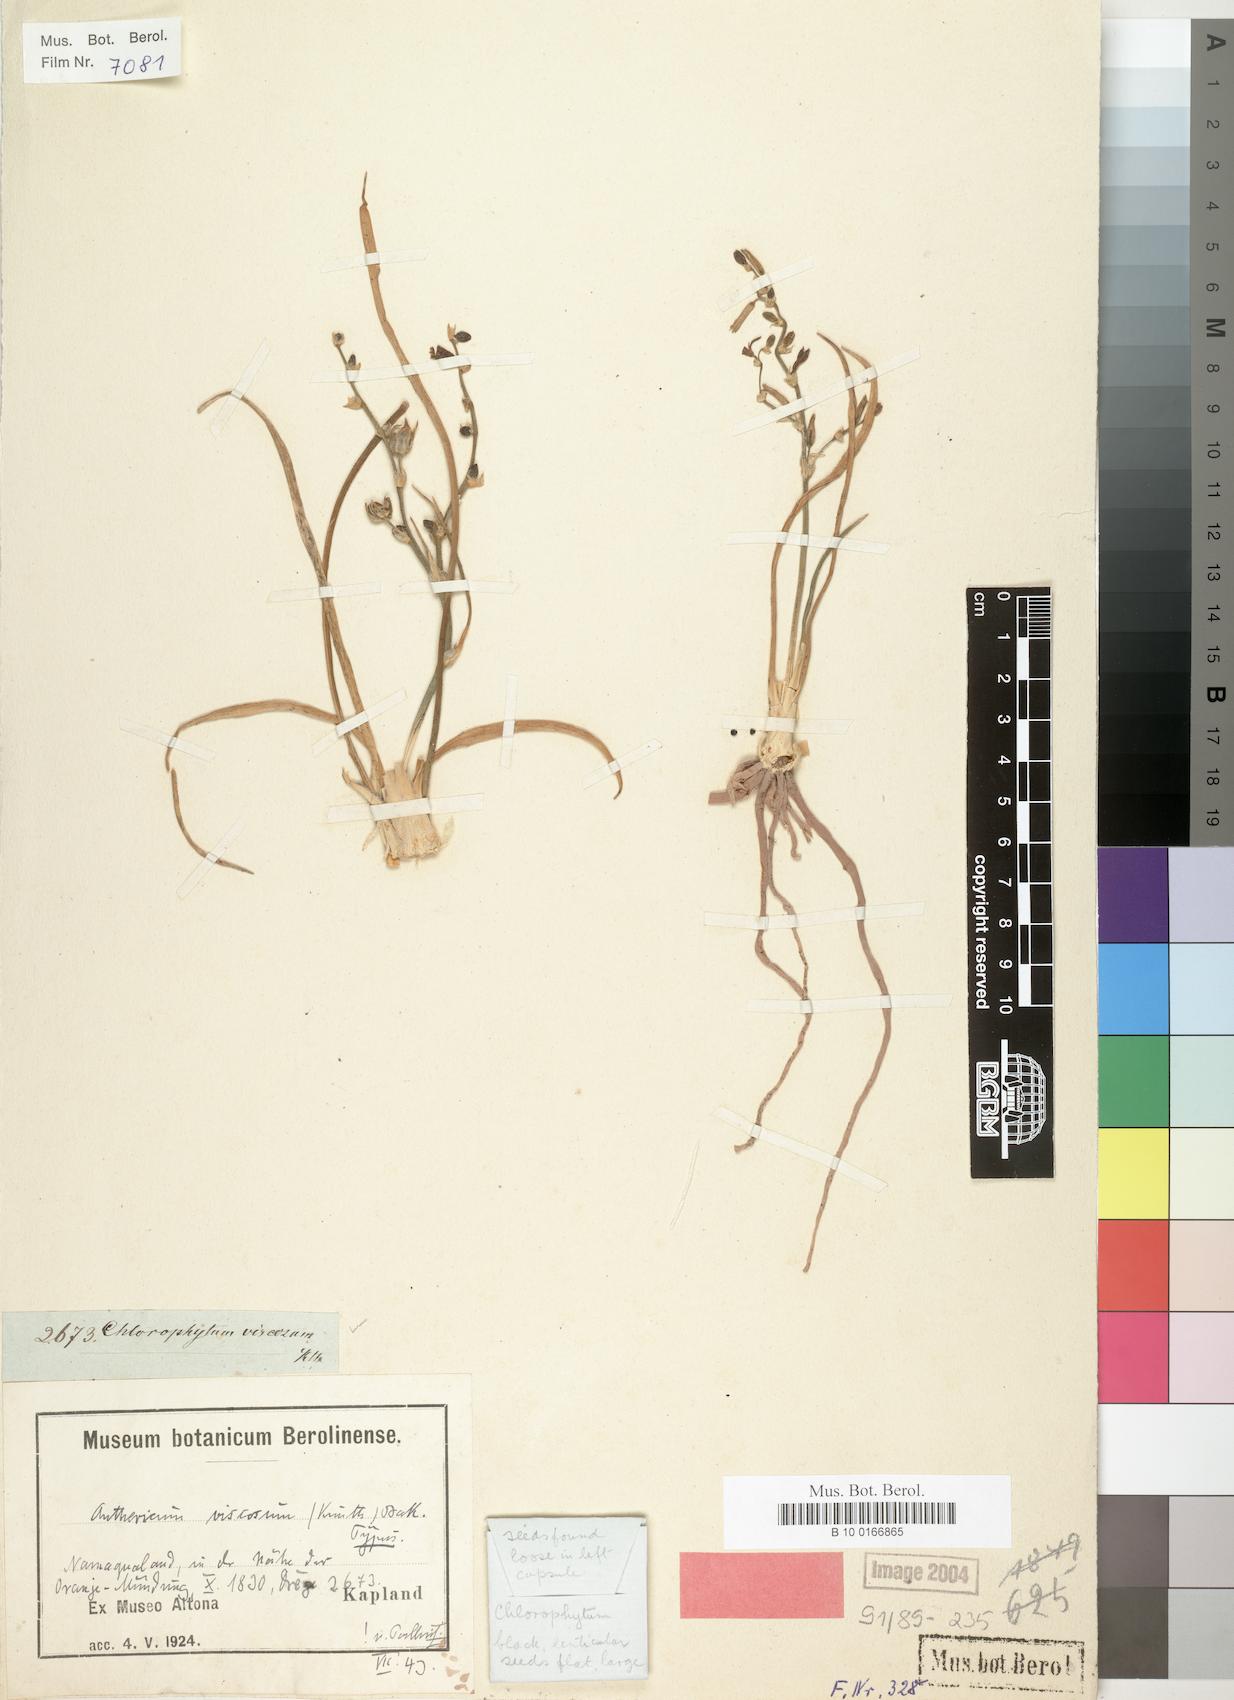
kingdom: Plantae
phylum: Tracheophyta
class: Liliopsida
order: Asparagales
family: Asparagaceae
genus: Chlorophytum
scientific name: Chlorophytum viscosum
